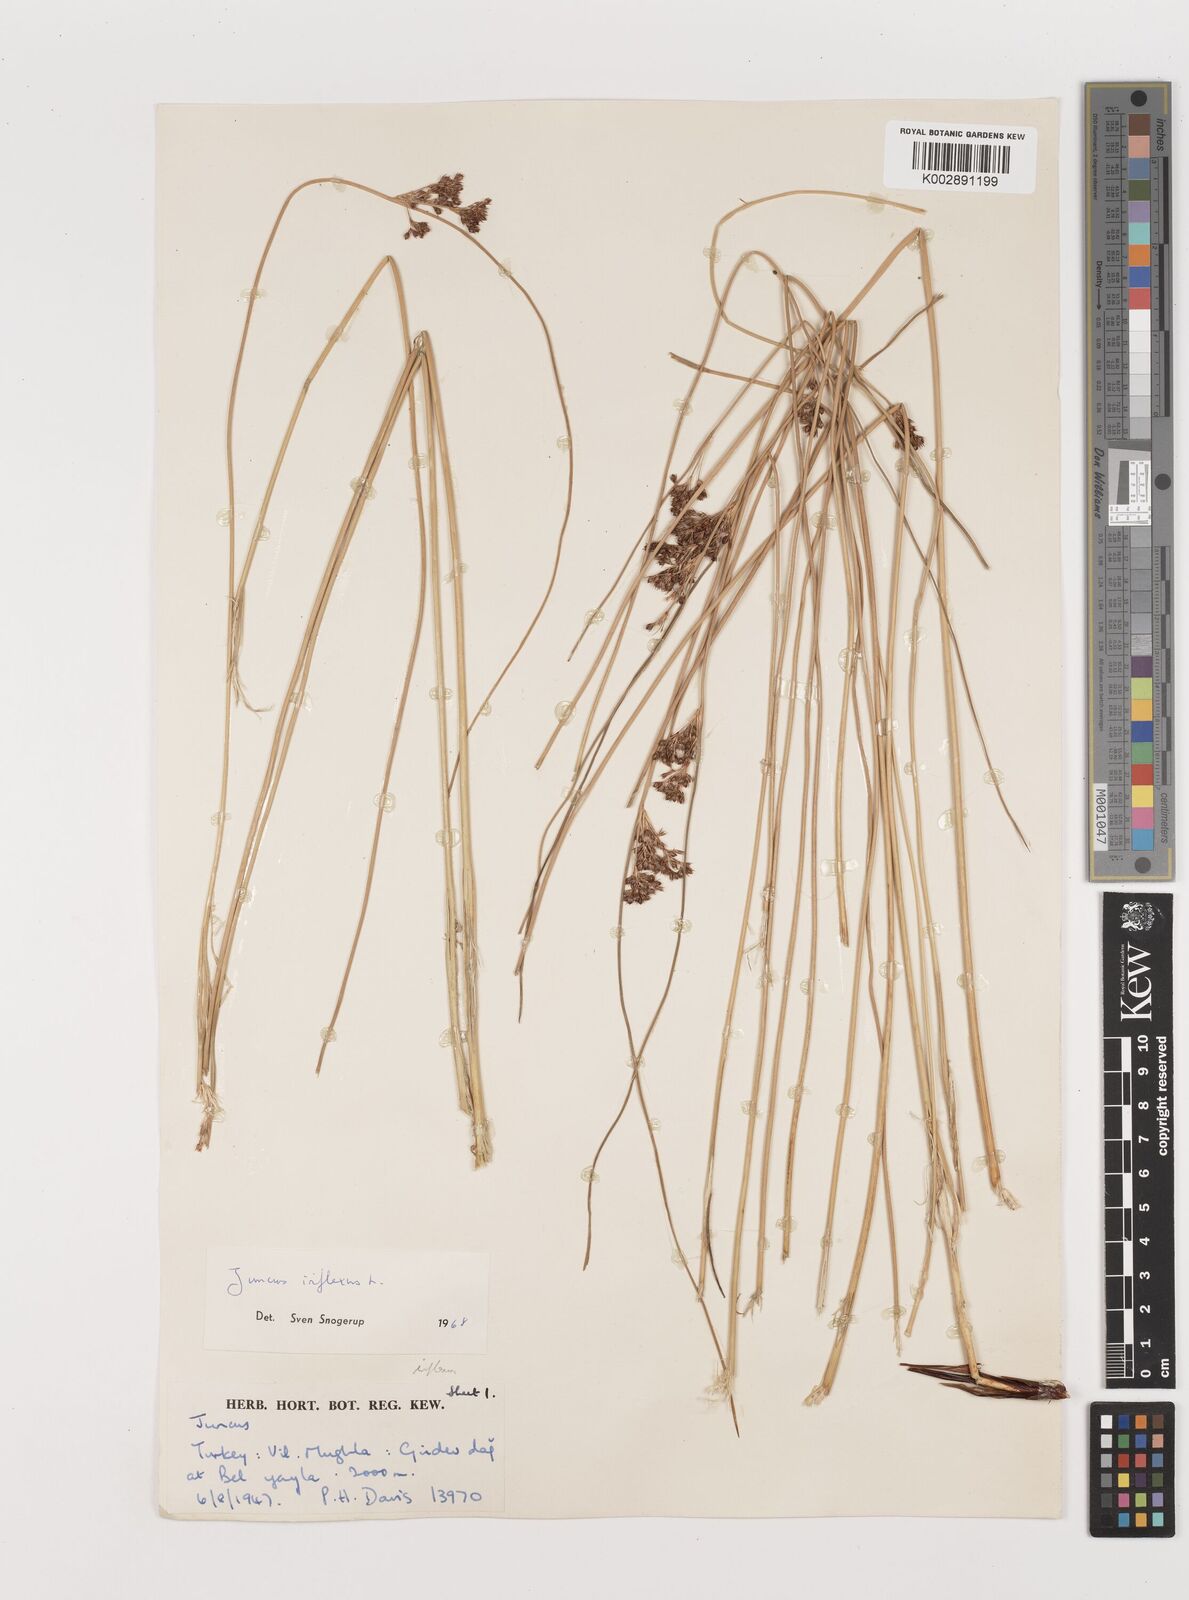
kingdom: Plantae
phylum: Tracheophyta
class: Liliopsida
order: Poales
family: Juncaceae
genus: Juncus
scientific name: Juncus inflexus
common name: Hard rush
